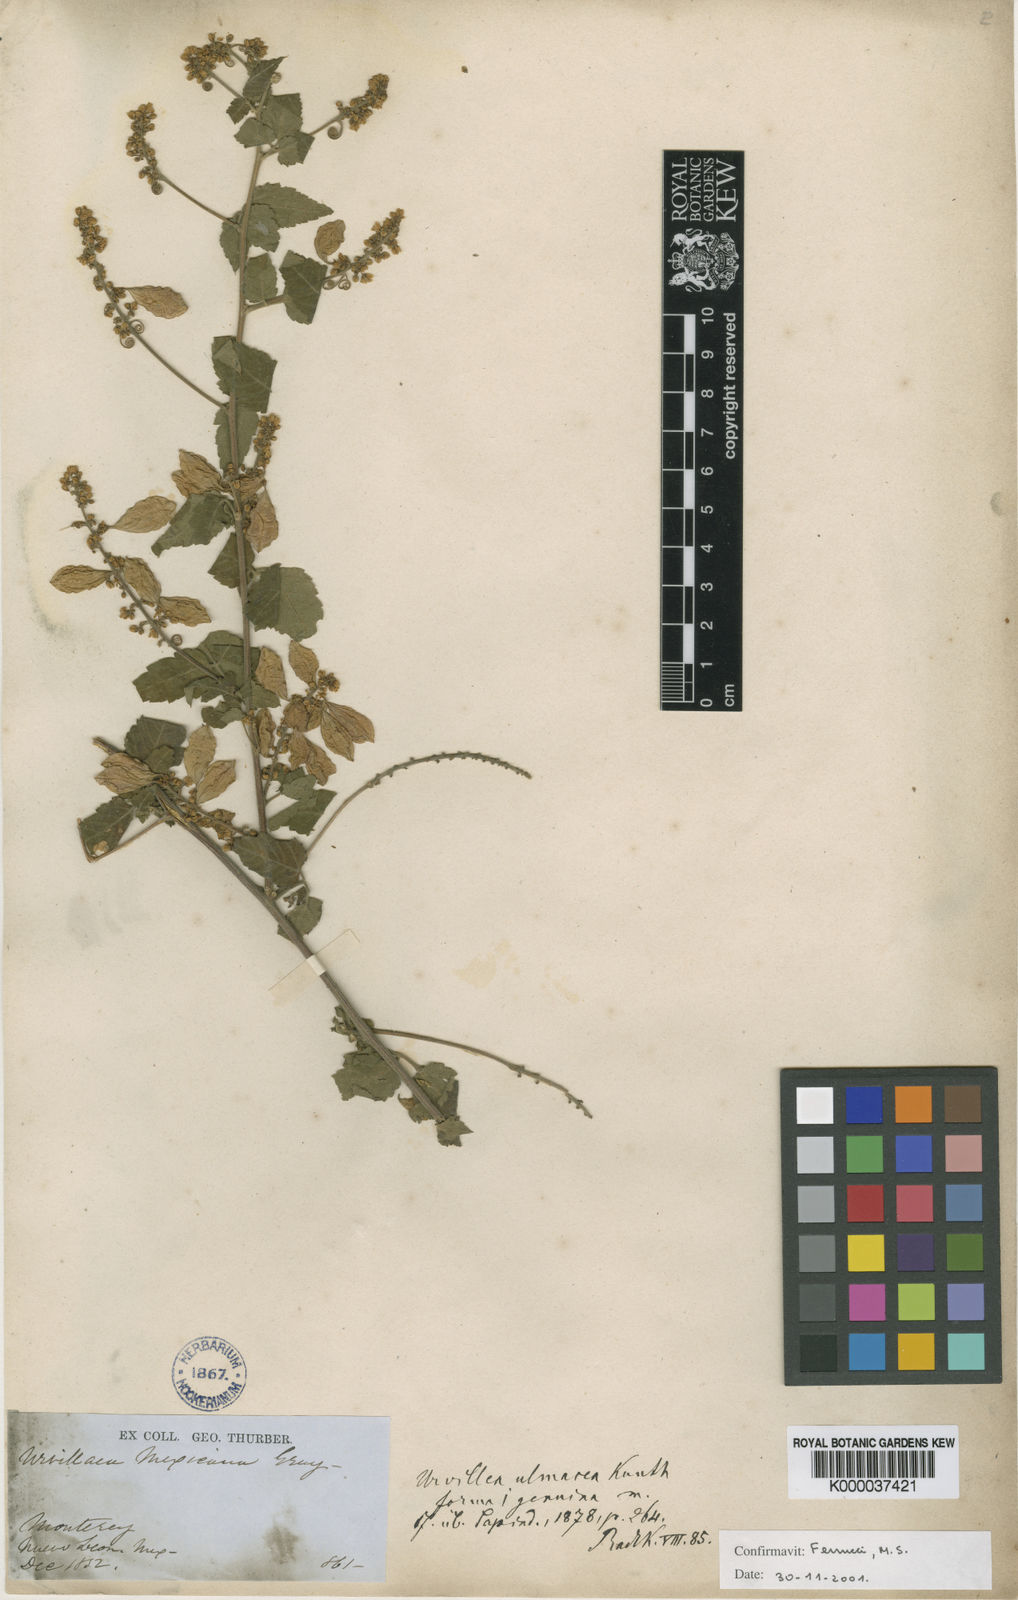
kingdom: Plantae
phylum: Tracheophyta
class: Magnoliopsida
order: Sapindales
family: Sapindaceae
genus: Urvillea
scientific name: Urvillea ulmacea
